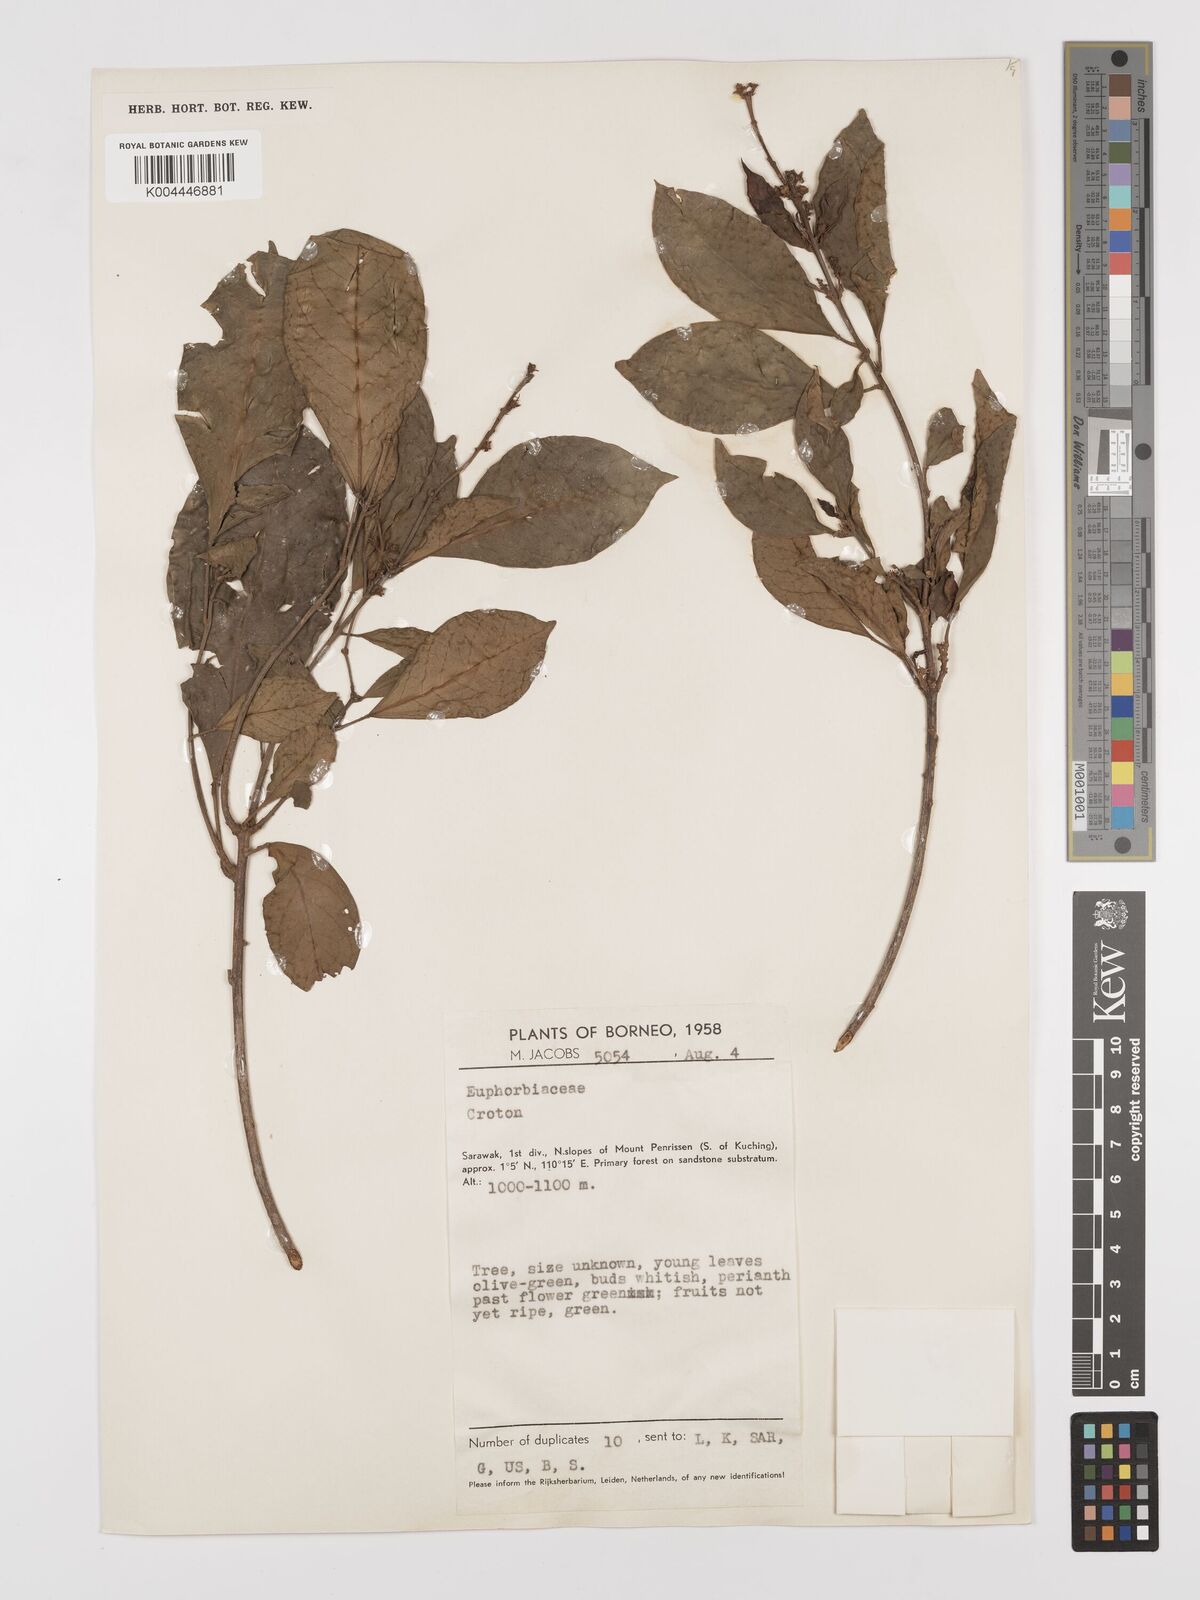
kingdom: Plantae
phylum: Tracheophyta
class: Magnoliopsida
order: Malpighiales
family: Euphorbiaceae
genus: Croton
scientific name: Croton oblongus
